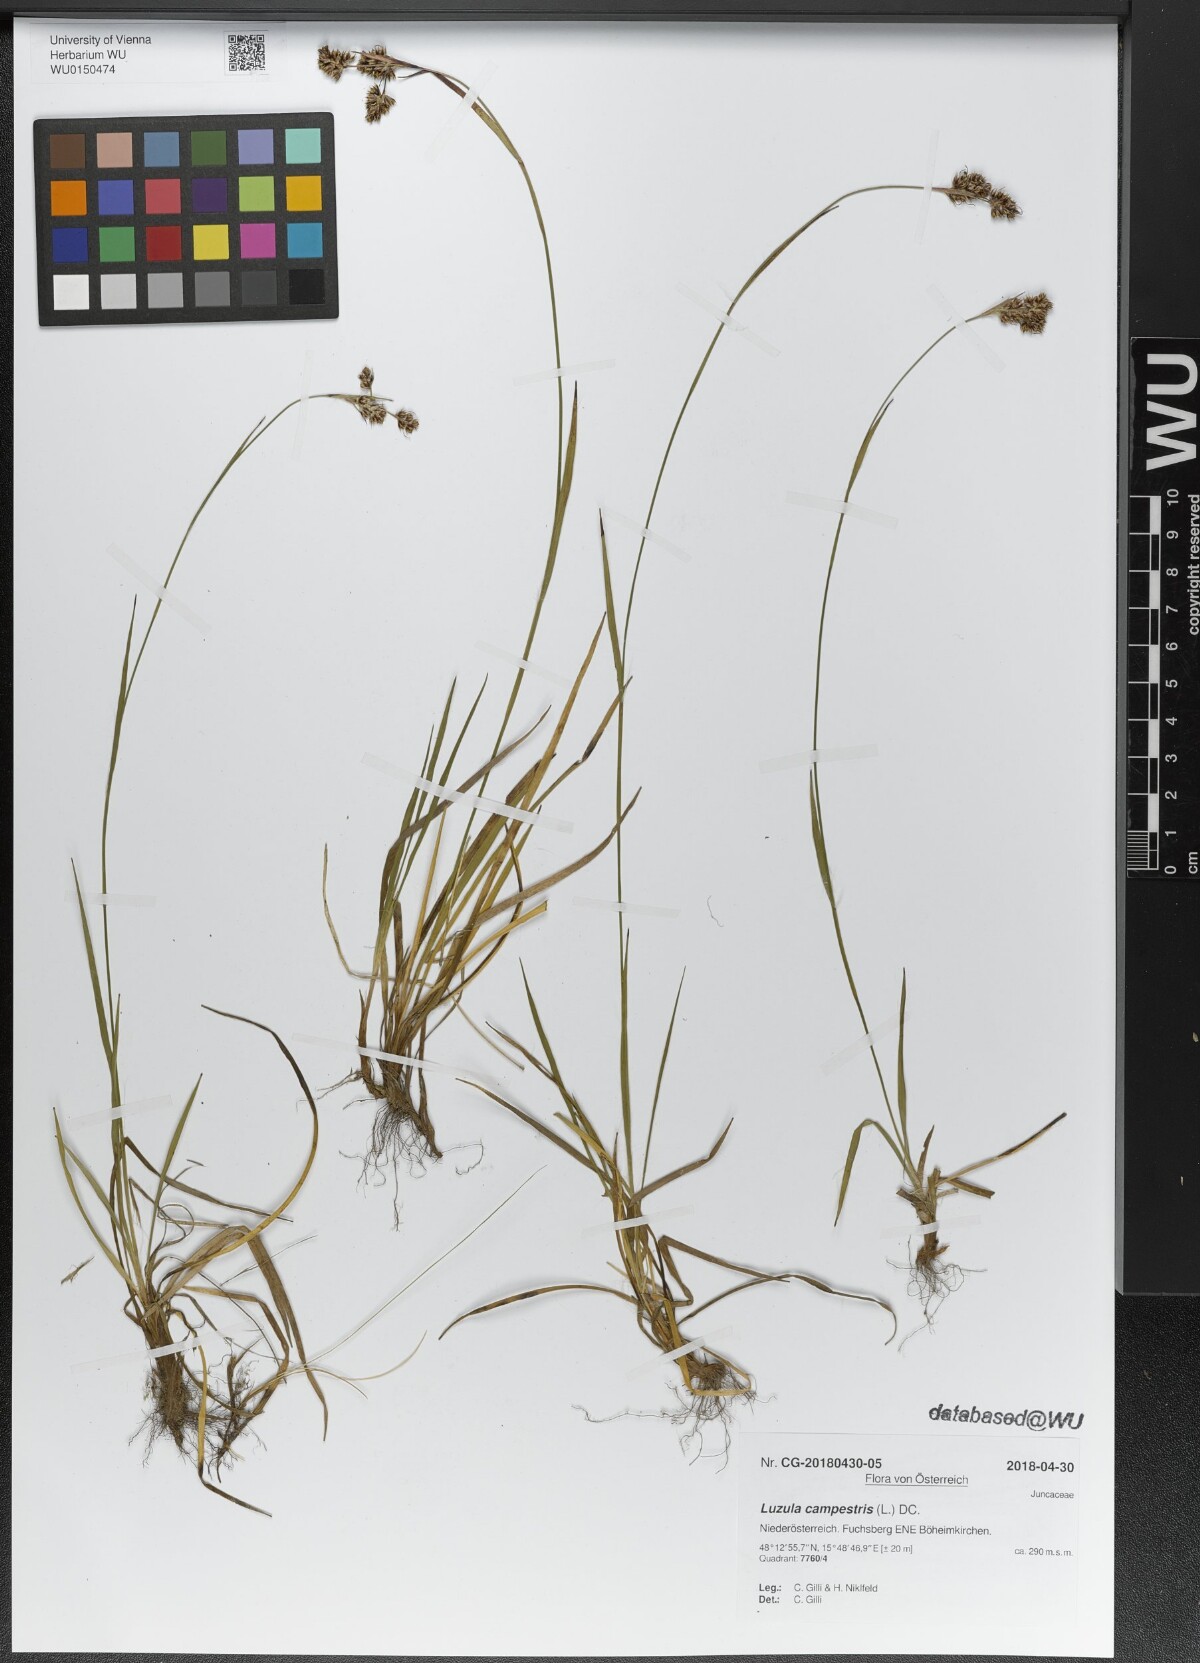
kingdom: Plantae
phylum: Tracheophyta
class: Liliopsida
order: Poales
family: Juncaceae
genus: Luzula
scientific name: Luzula campestris
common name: Field wood-rush
